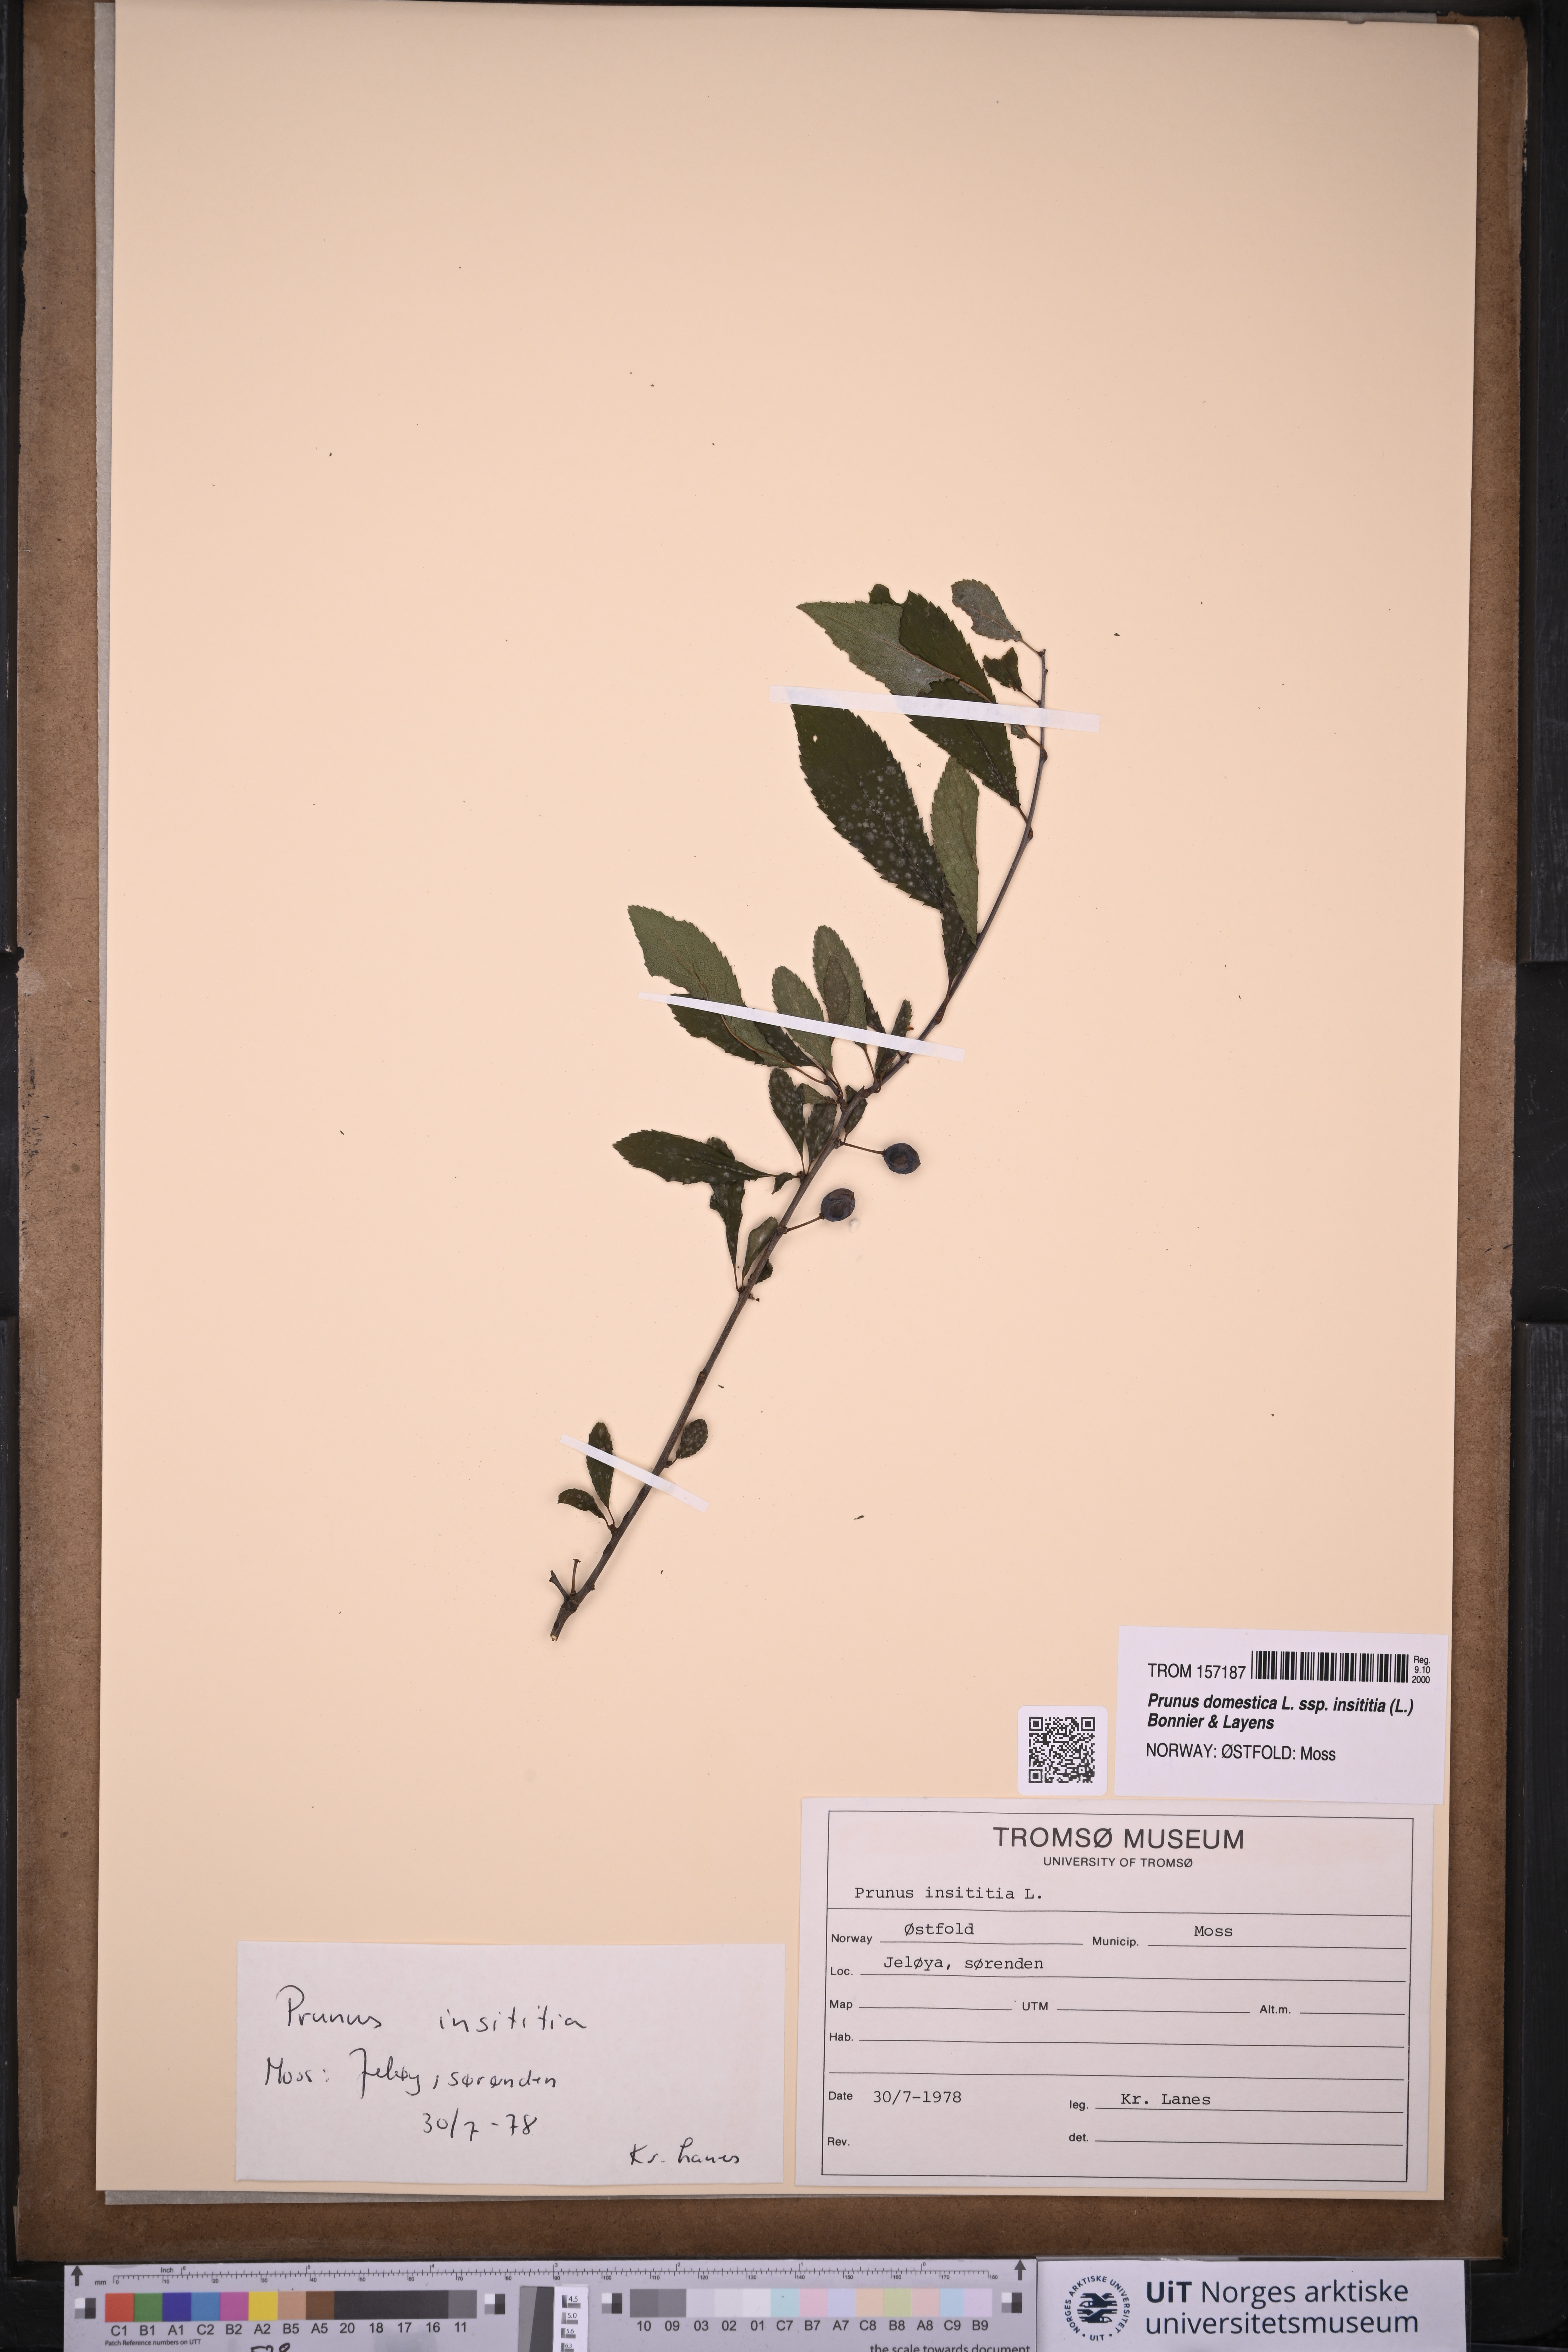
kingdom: Plantae
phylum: Tracheophyta
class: Magnoliopsida
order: Rosales
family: Rosaceae
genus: Prunus
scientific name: Prunus domestica
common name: Wild plum
